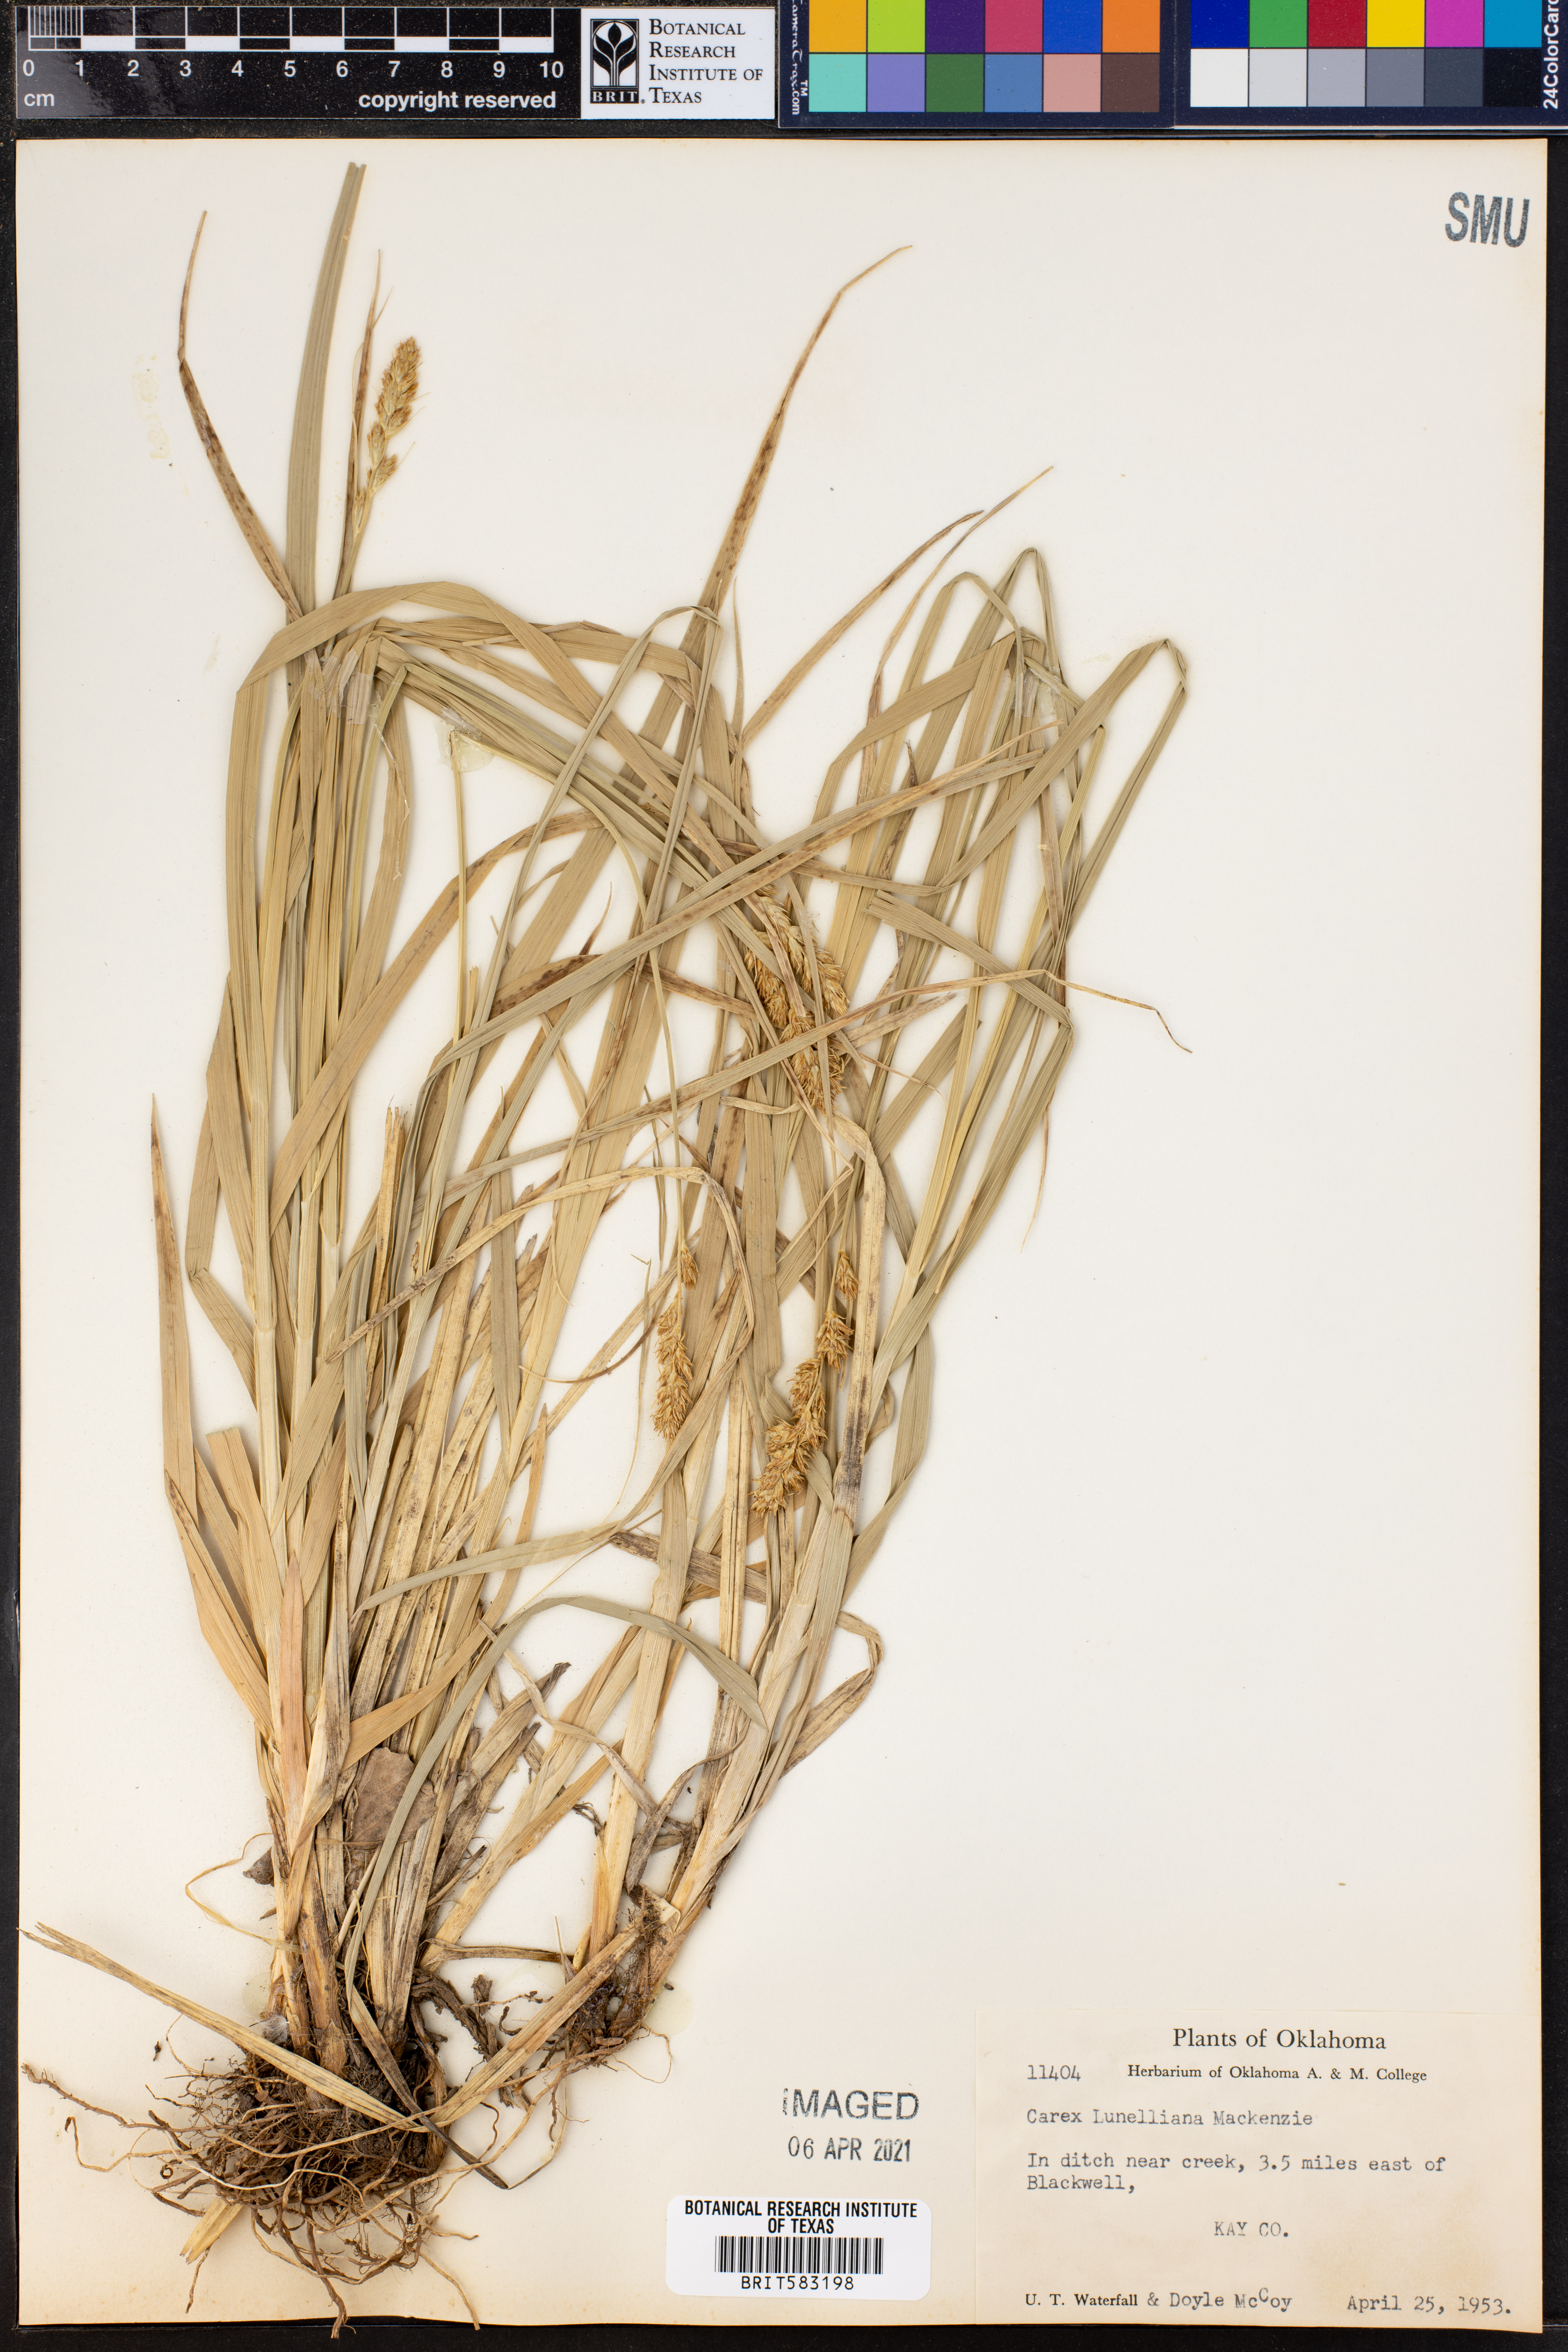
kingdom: Plantae
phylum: Tracheophyta
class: Liliopsida
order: Poales
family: Cyperaceae
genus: Carex
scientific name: Carex gravida
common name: Heavy sedge
